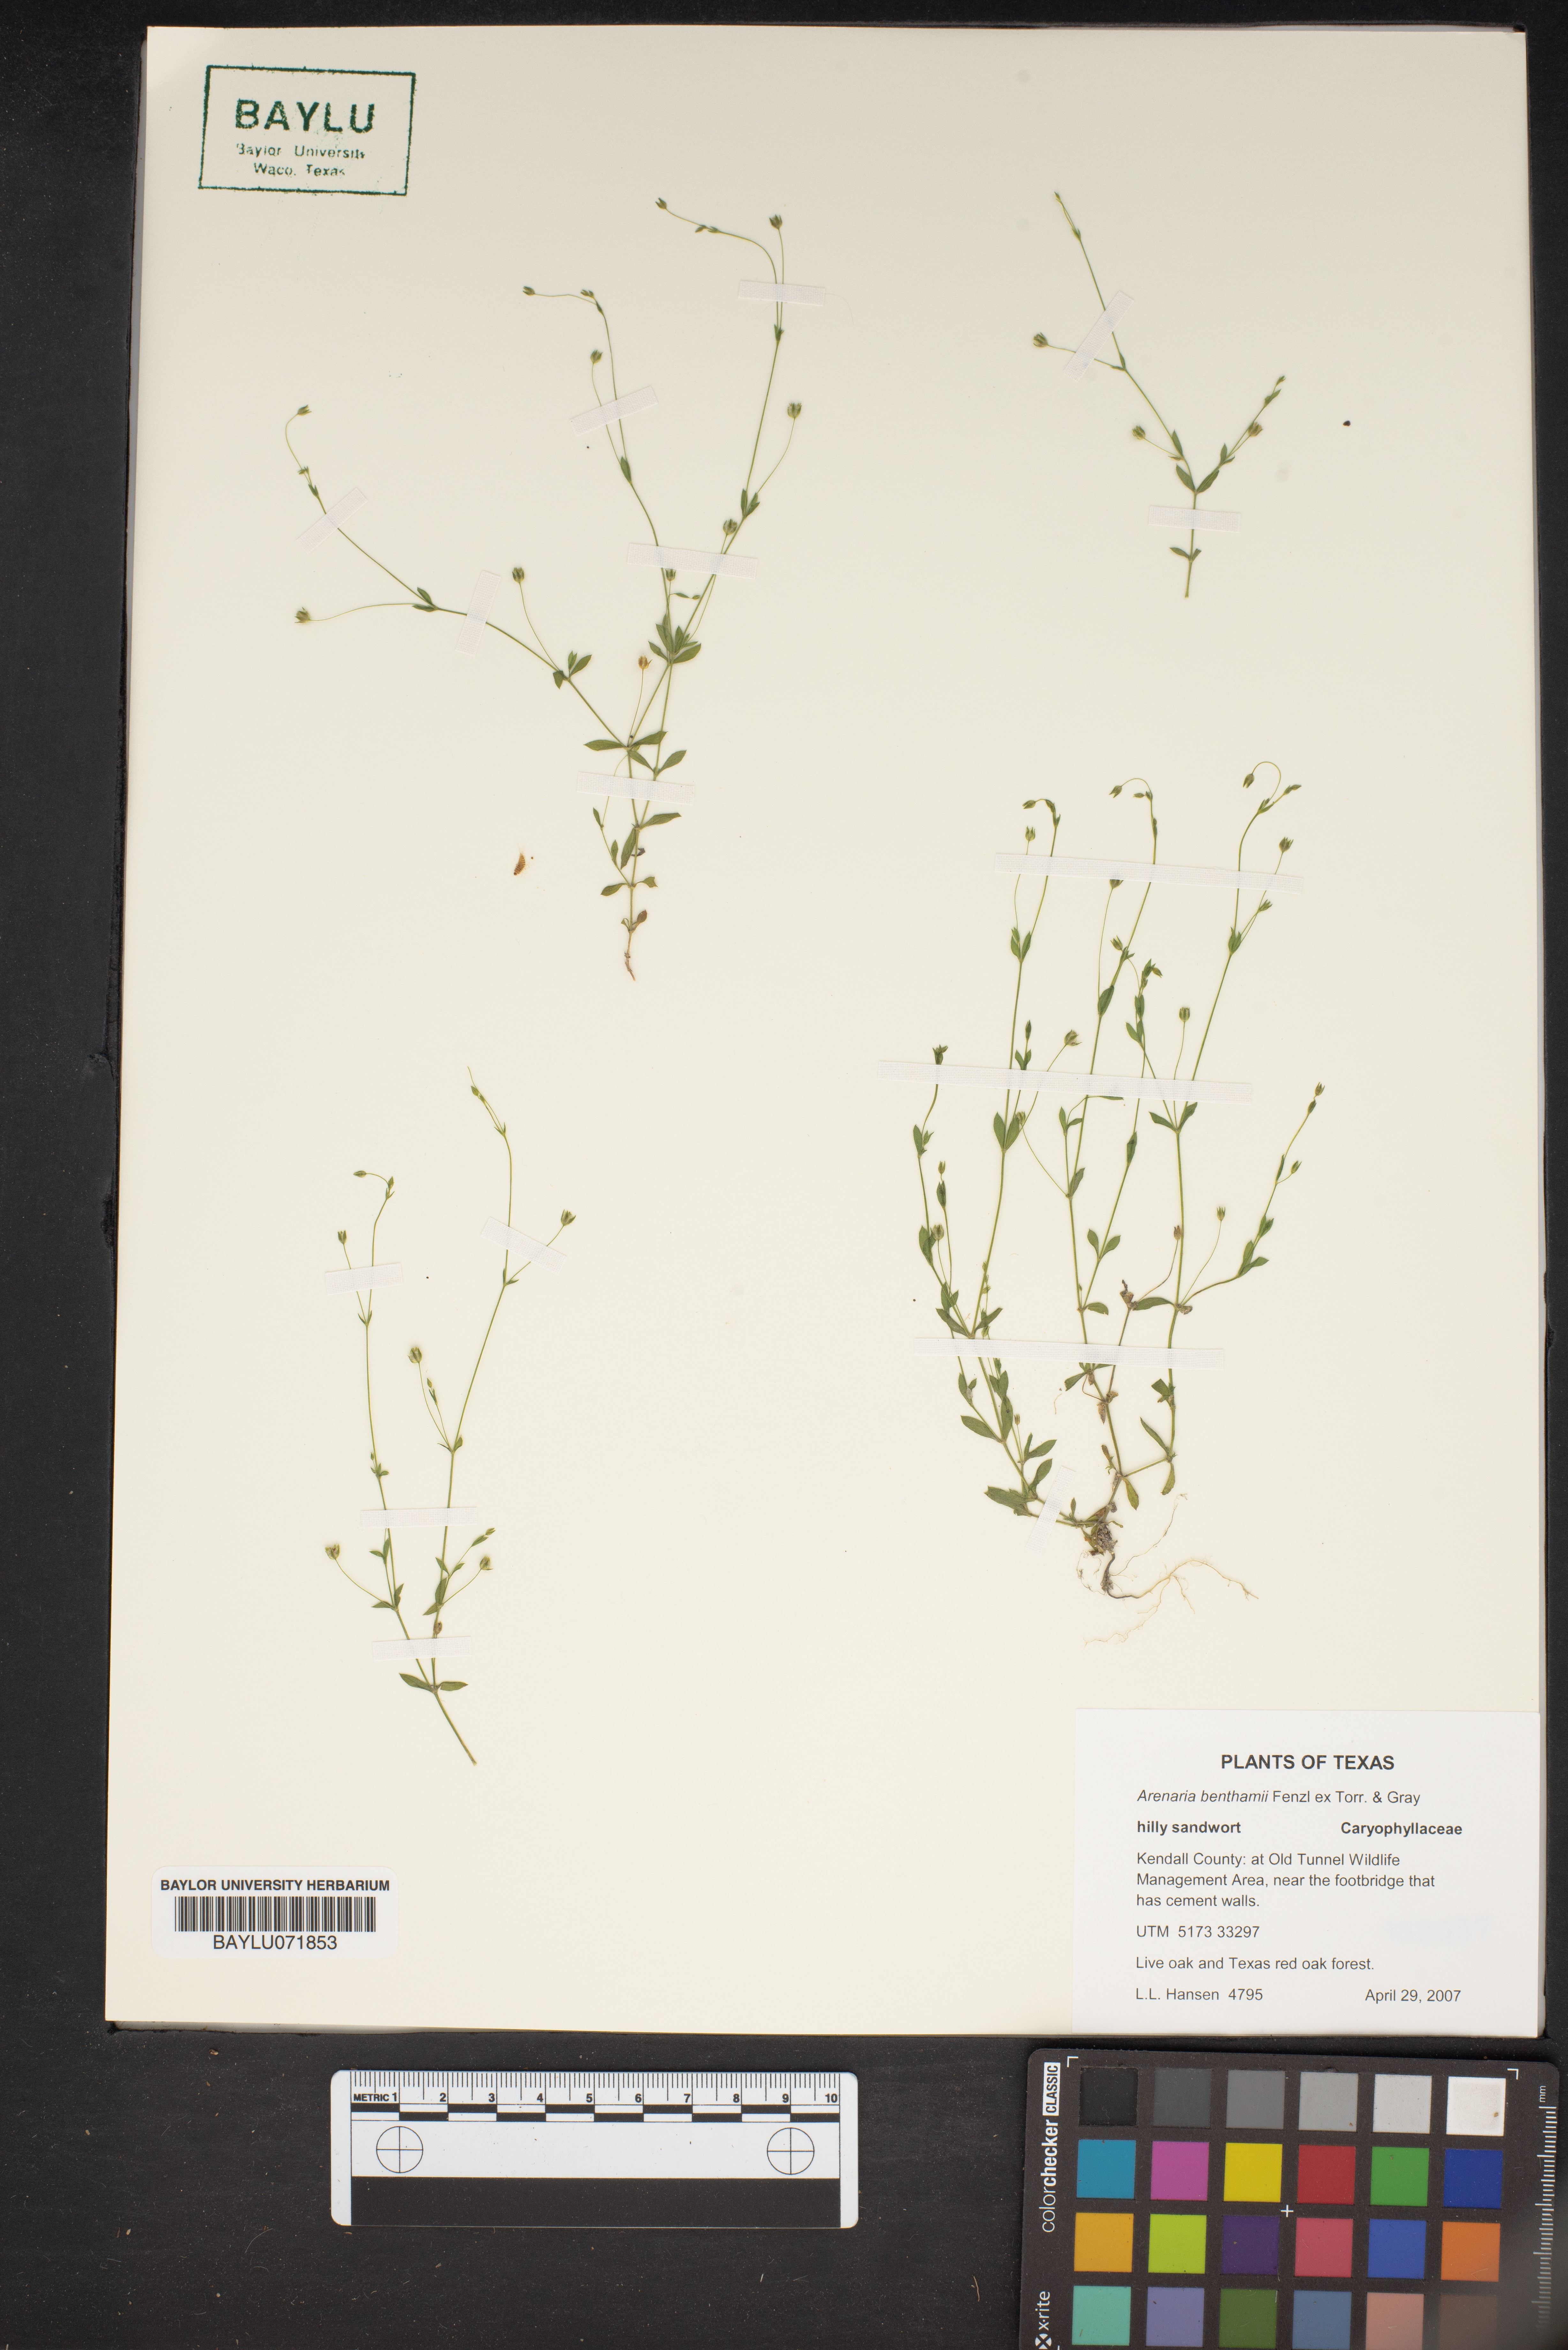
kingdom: Plantae
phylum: Tracheophyta
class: Magnoliopsida
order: Caryophyllales
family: Caryophyllaceae
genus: Arenaria
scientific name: Arenaria benthamii
